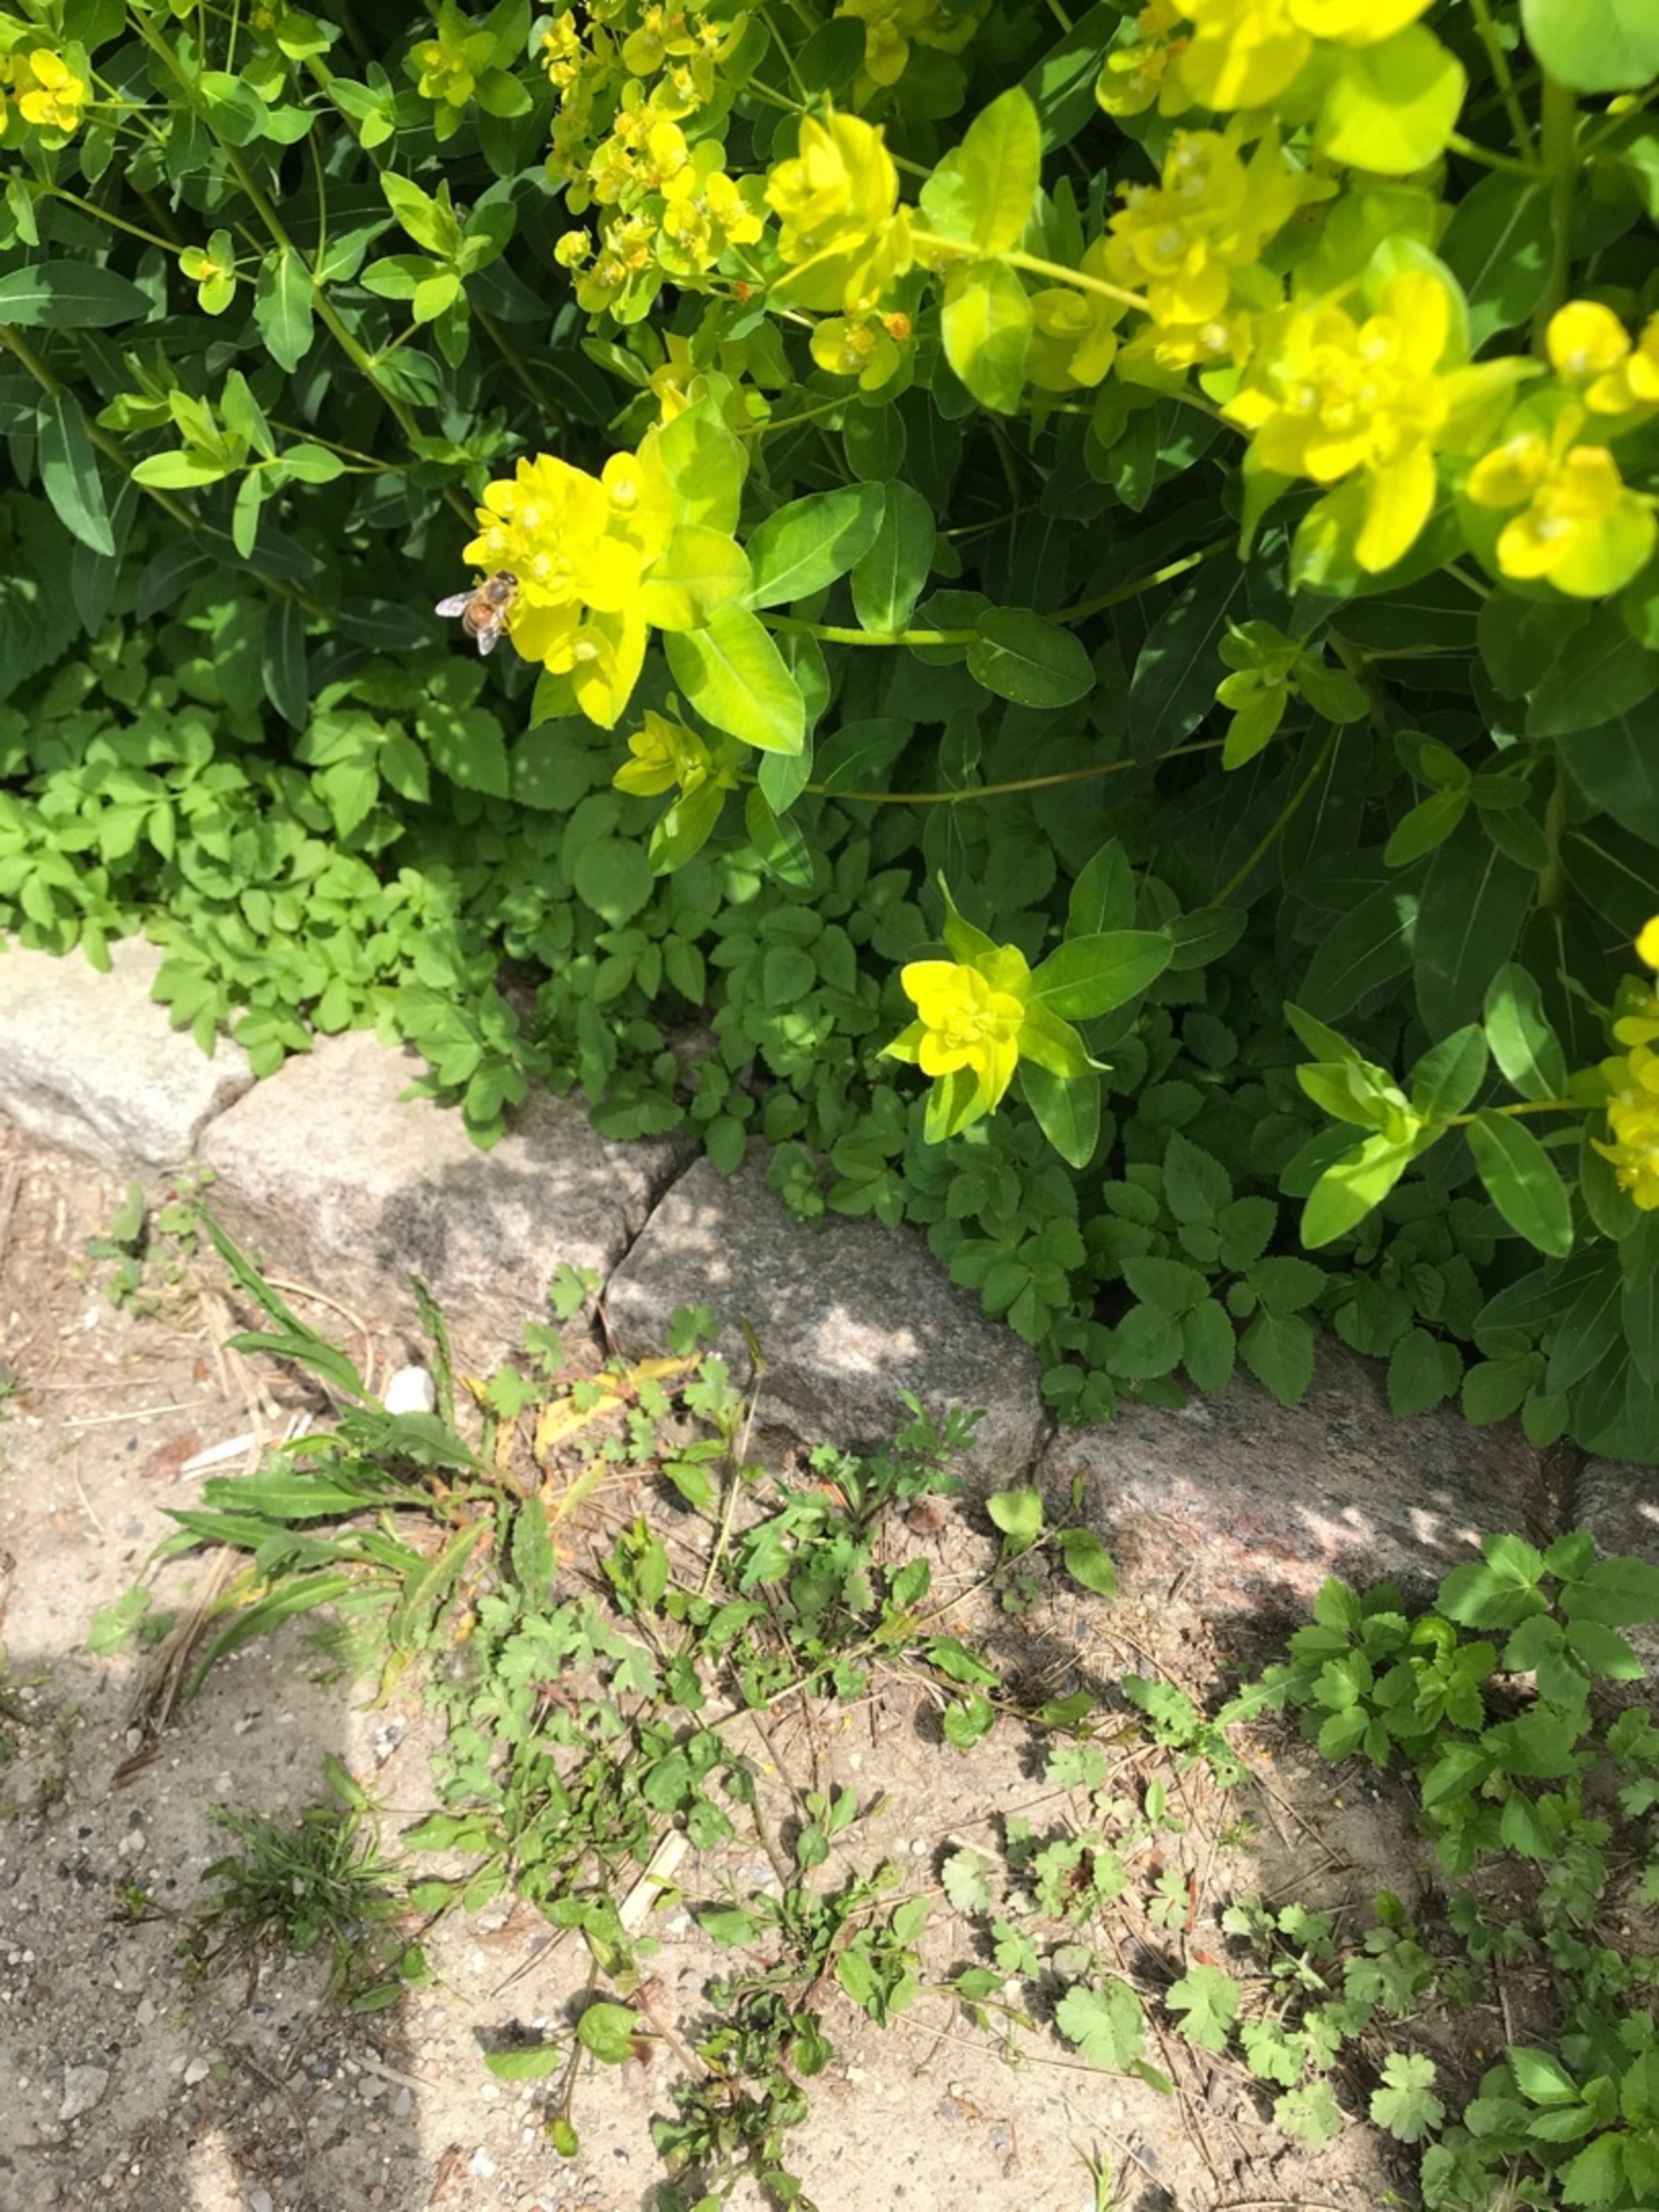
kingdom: Animalia
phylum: Arthropoda
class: Insecta
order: Hymenoptera
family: Apidae
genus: Apis
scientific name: Apis
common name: Honningbier
